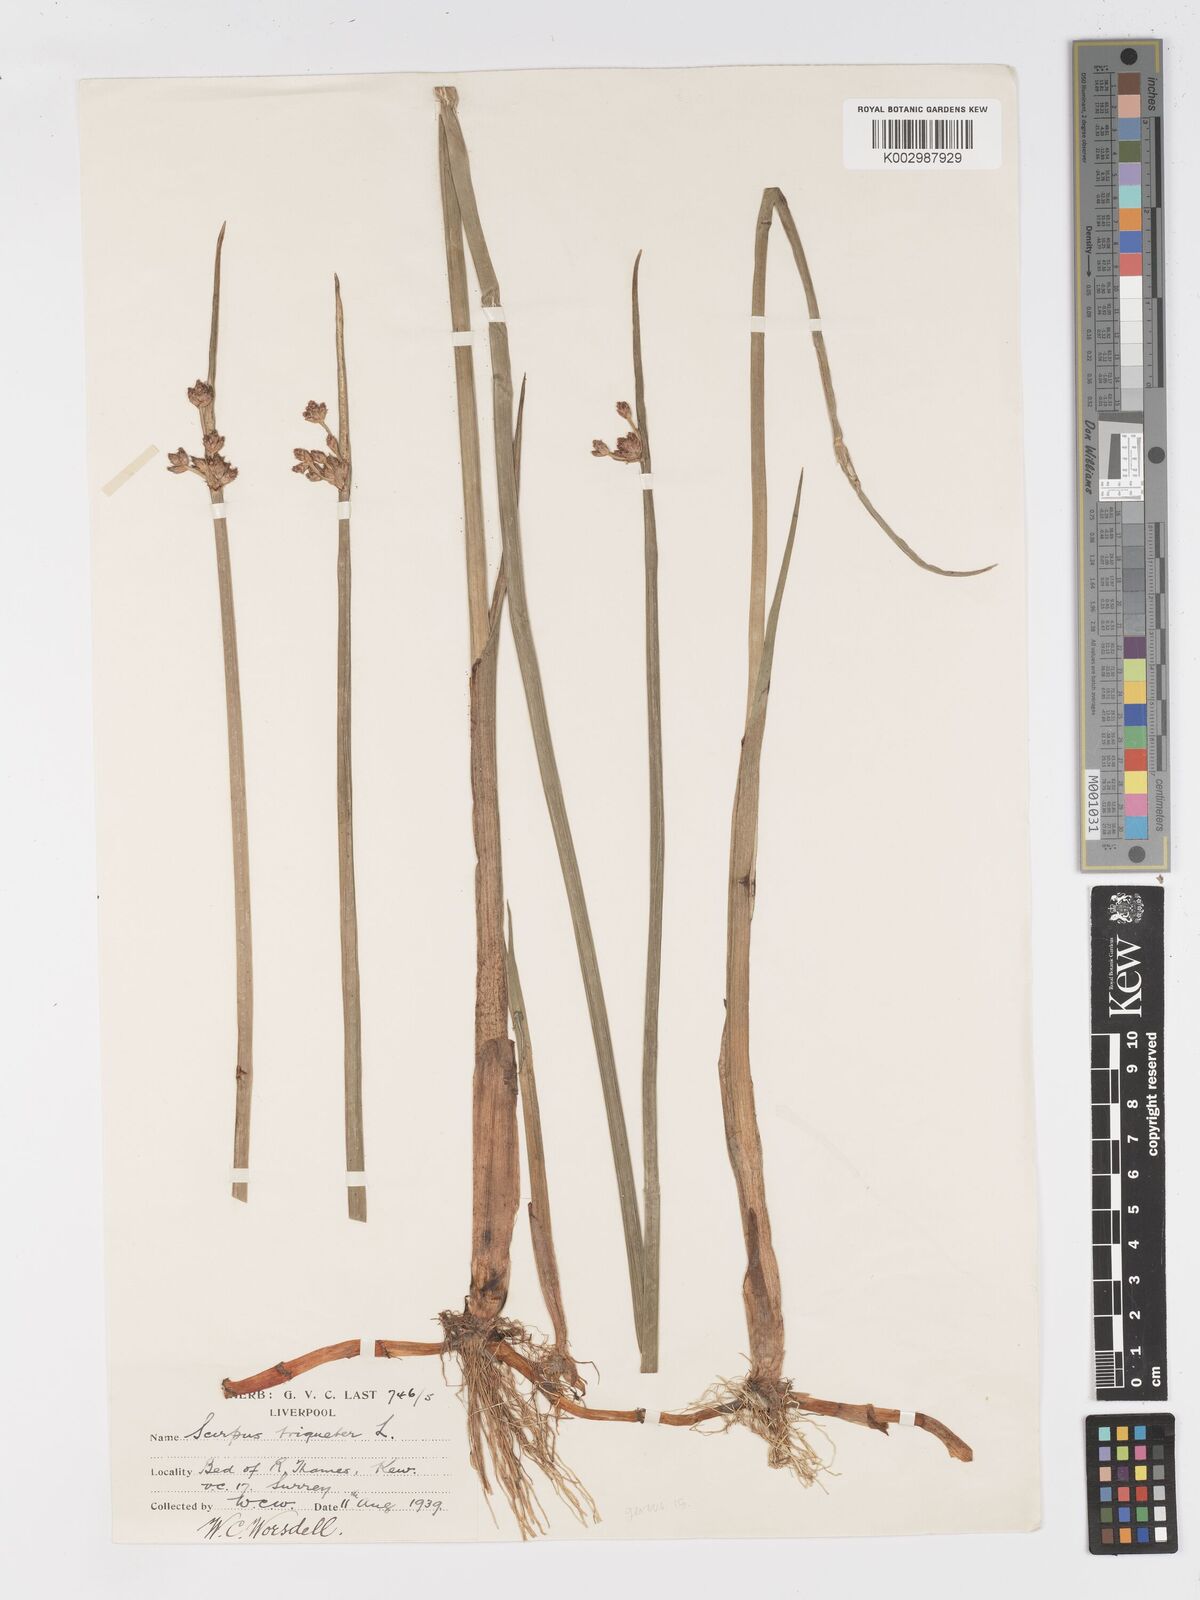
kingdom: Plantae
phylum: Tracheophyta
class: Liliopsida
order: Poales
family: Cyperaceae
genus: Schoenoplectus
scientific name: Schoenoplectus triqueter
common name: Triangular club-rush
